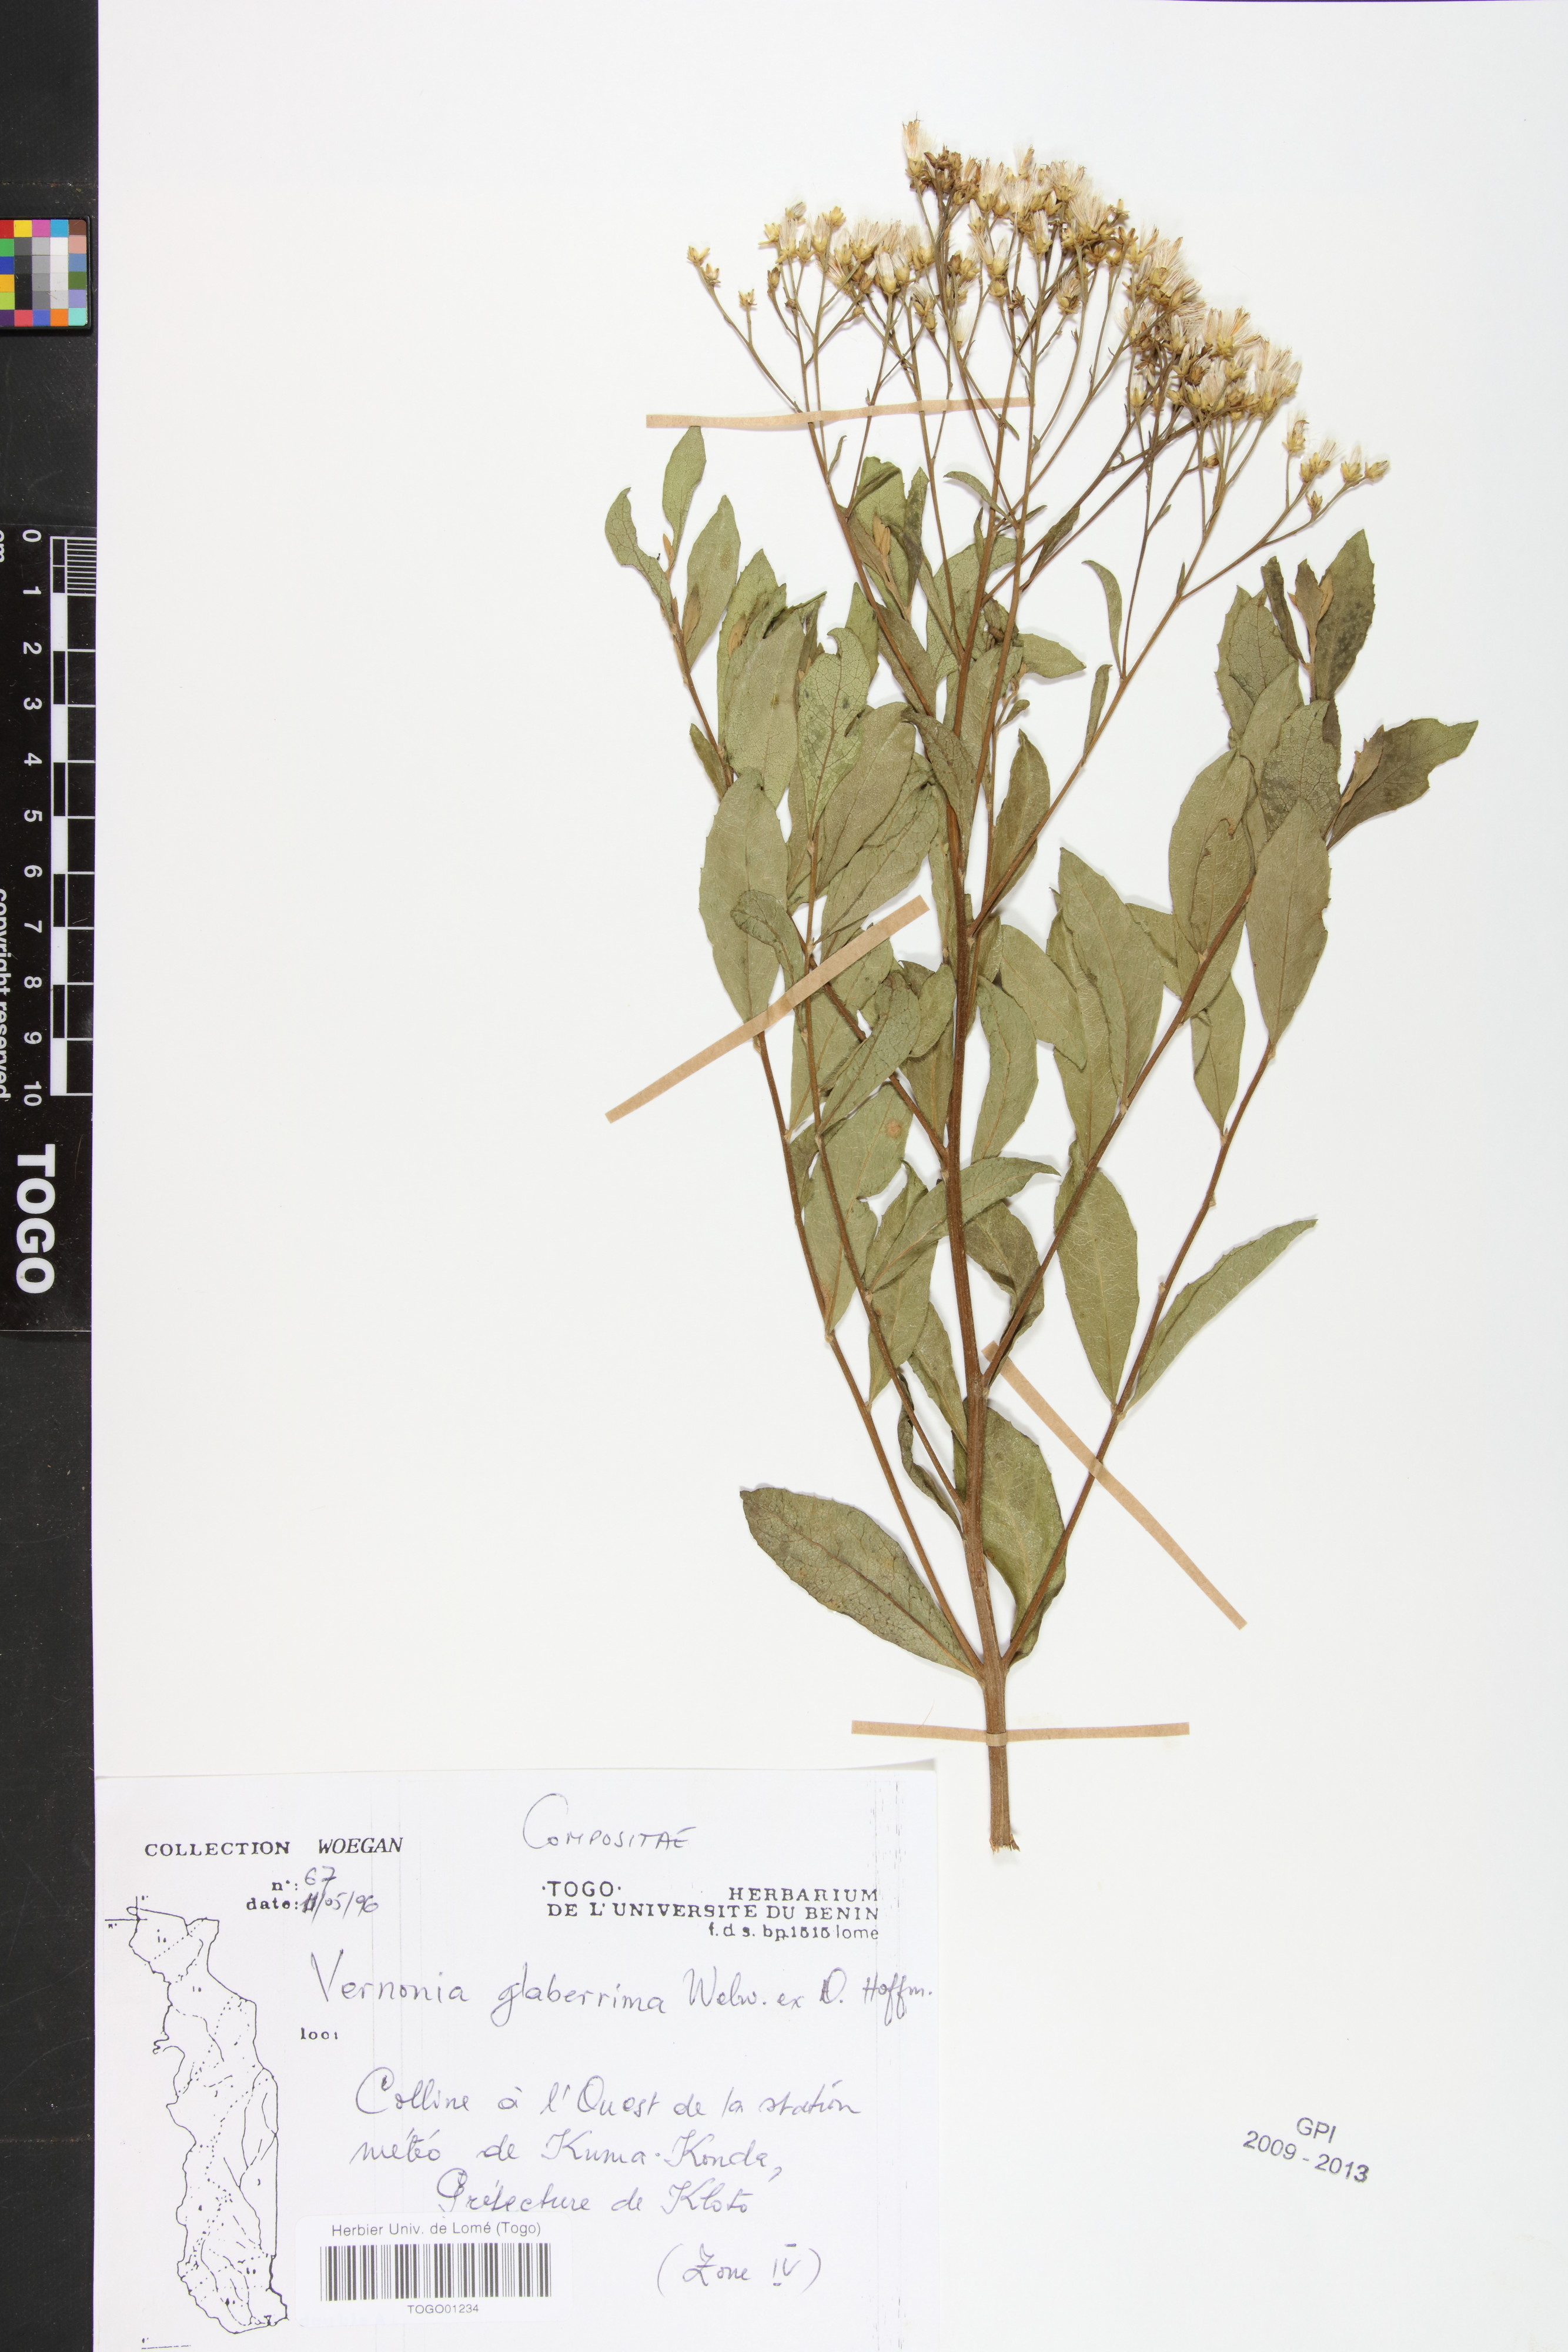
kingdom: Plantae
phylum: Tracheophyta
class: Magnoliopsida
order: Asterales
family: Asteraceae
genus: Gymnanthemum
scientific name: Gymnanthemum glaberrimum
